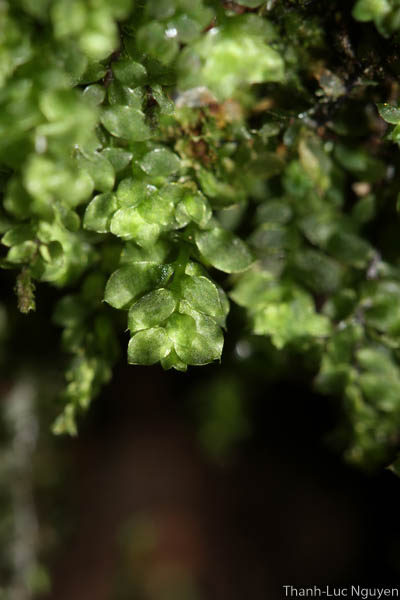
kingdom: Plantae
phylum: Bryophyta
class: Bryopsida
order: Hookeriales
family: Daltoniaceae
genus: Calyptrochaeta
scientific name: Calyptrochaeta
